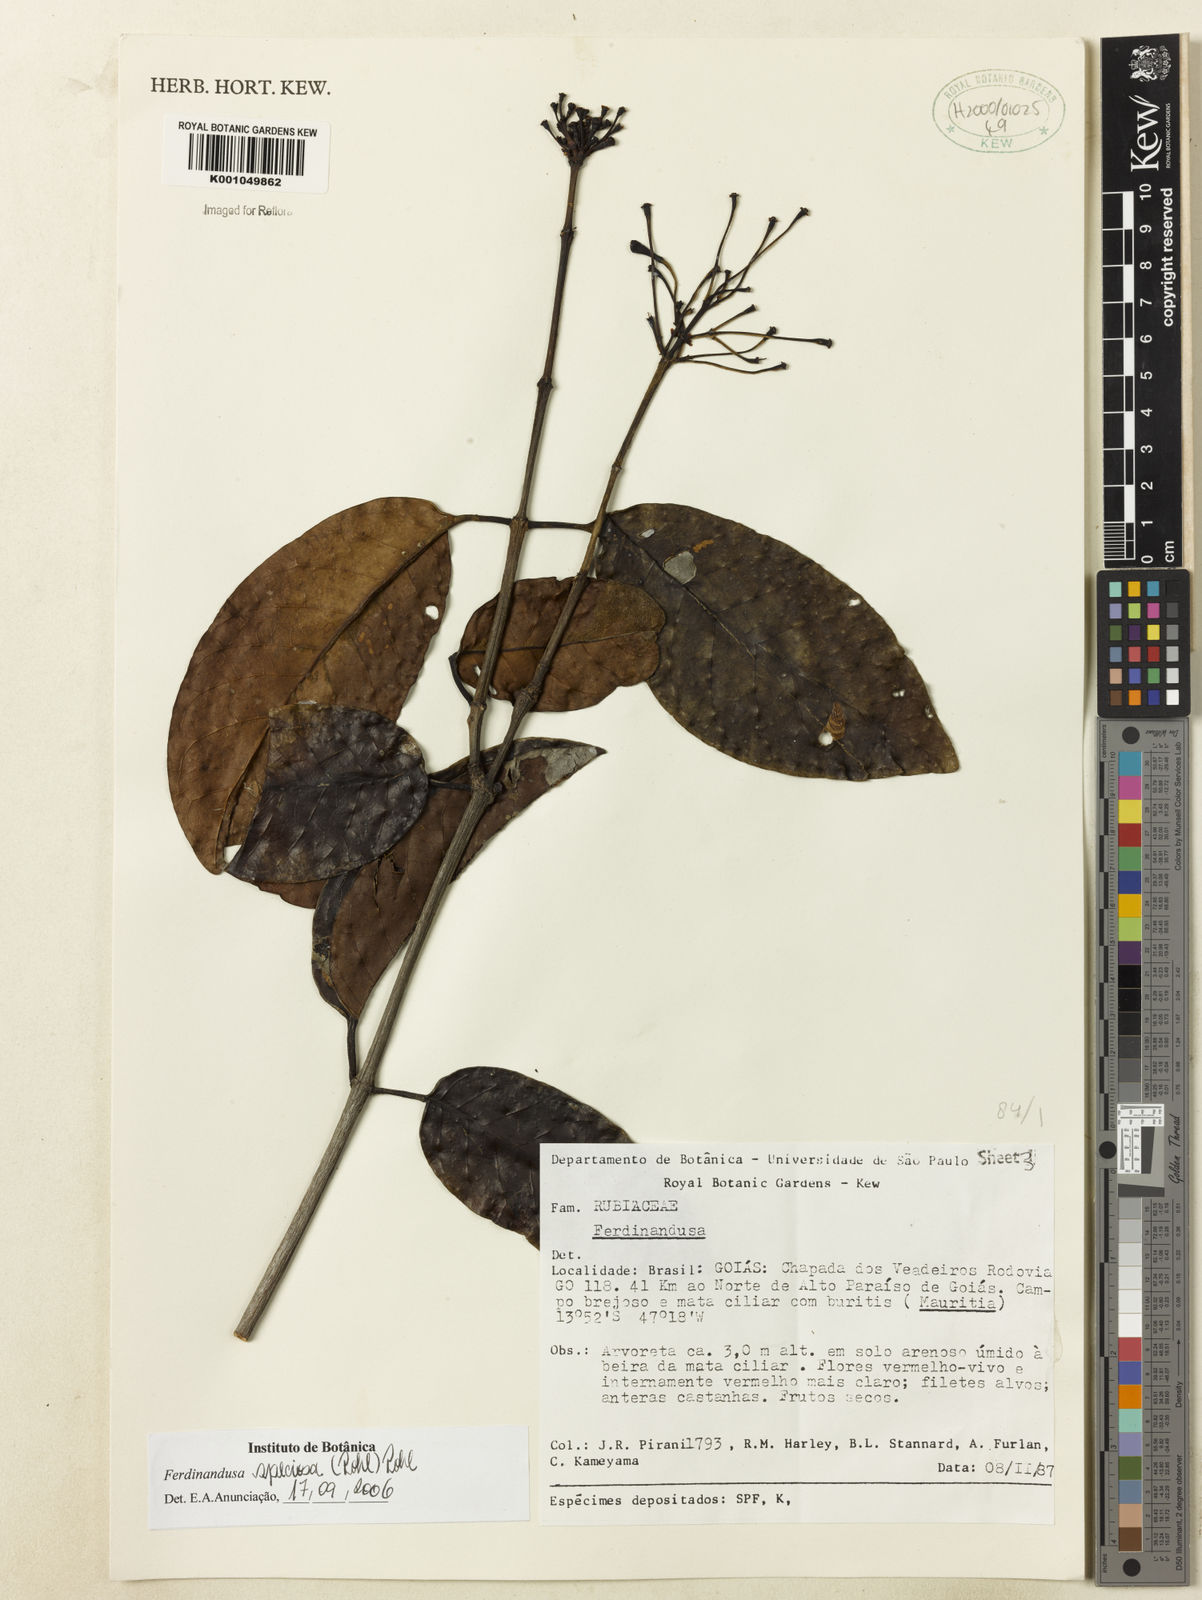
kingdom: Plantae
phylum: Tracheophyta
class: Magnoliopsida
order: Gentianales
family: Rubiaceae
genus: Ferdinandusa
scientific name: Ferdinandusa speciosa
